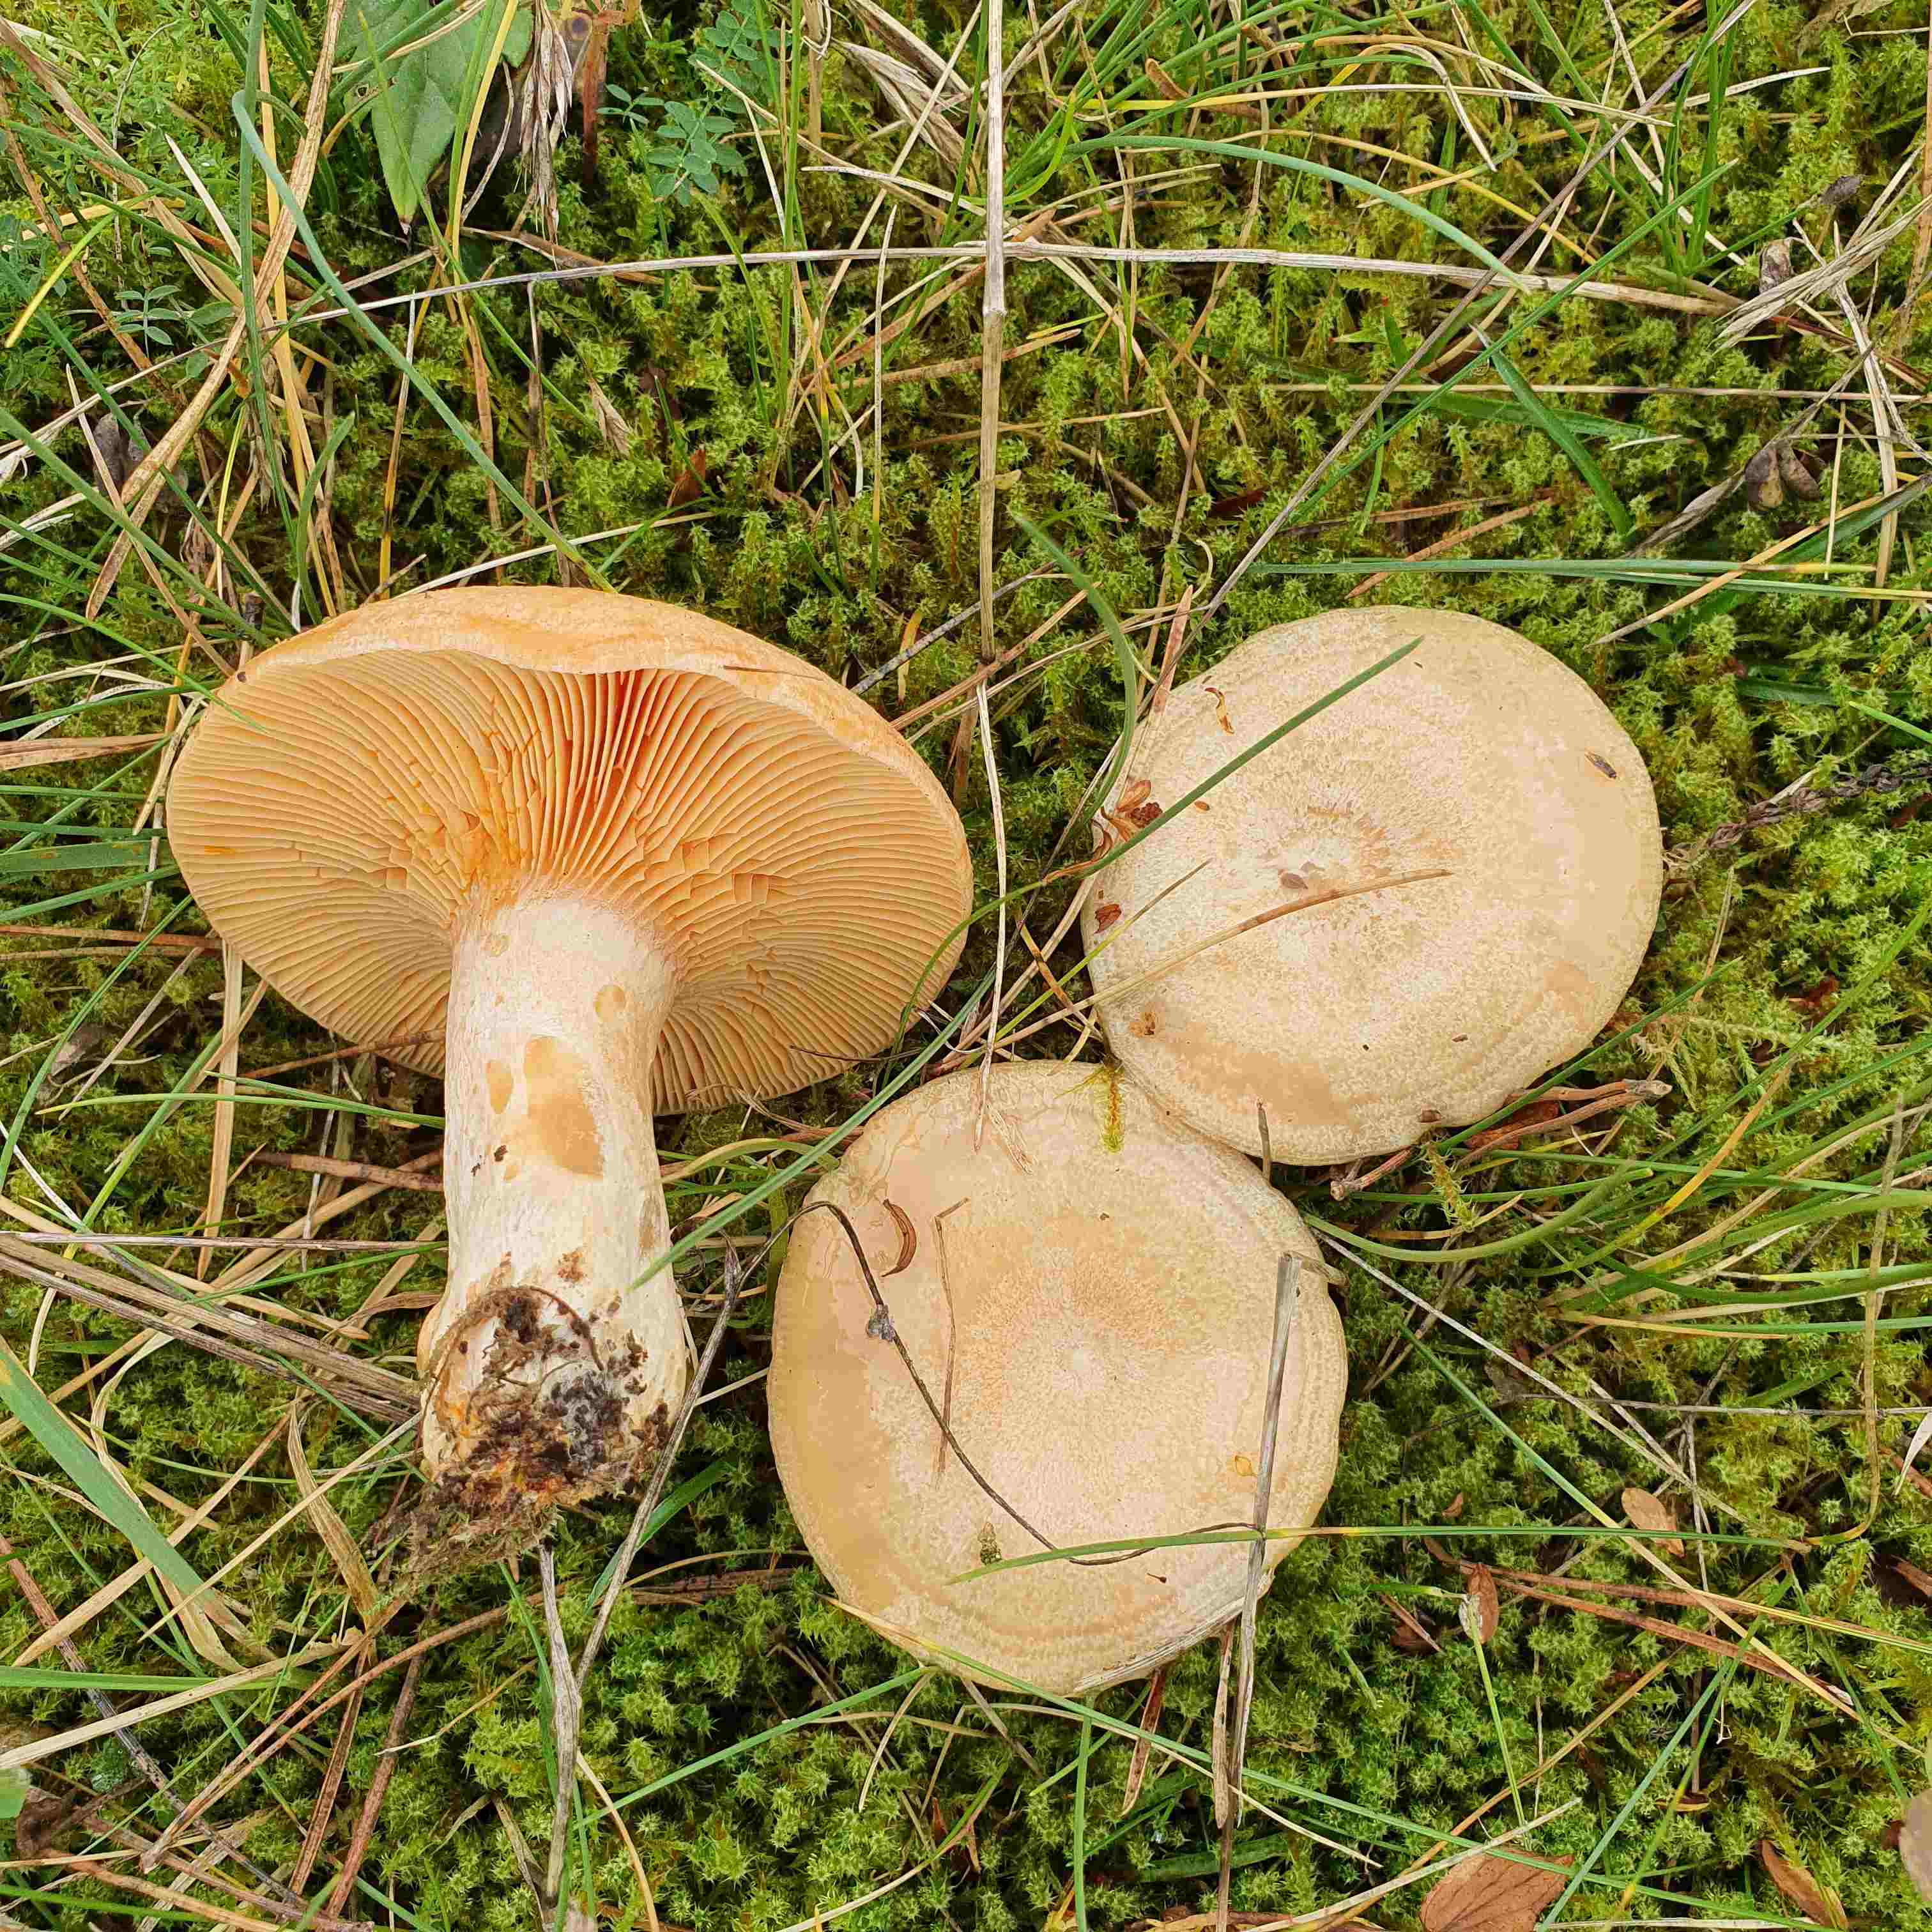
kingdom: Fungi
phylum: Basidiomycota
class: Agaricomycetes
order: Russulales
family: Russulaceae
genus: Lactarius
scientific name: Lactarius deliciosus
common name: velsmagende mælkehat
